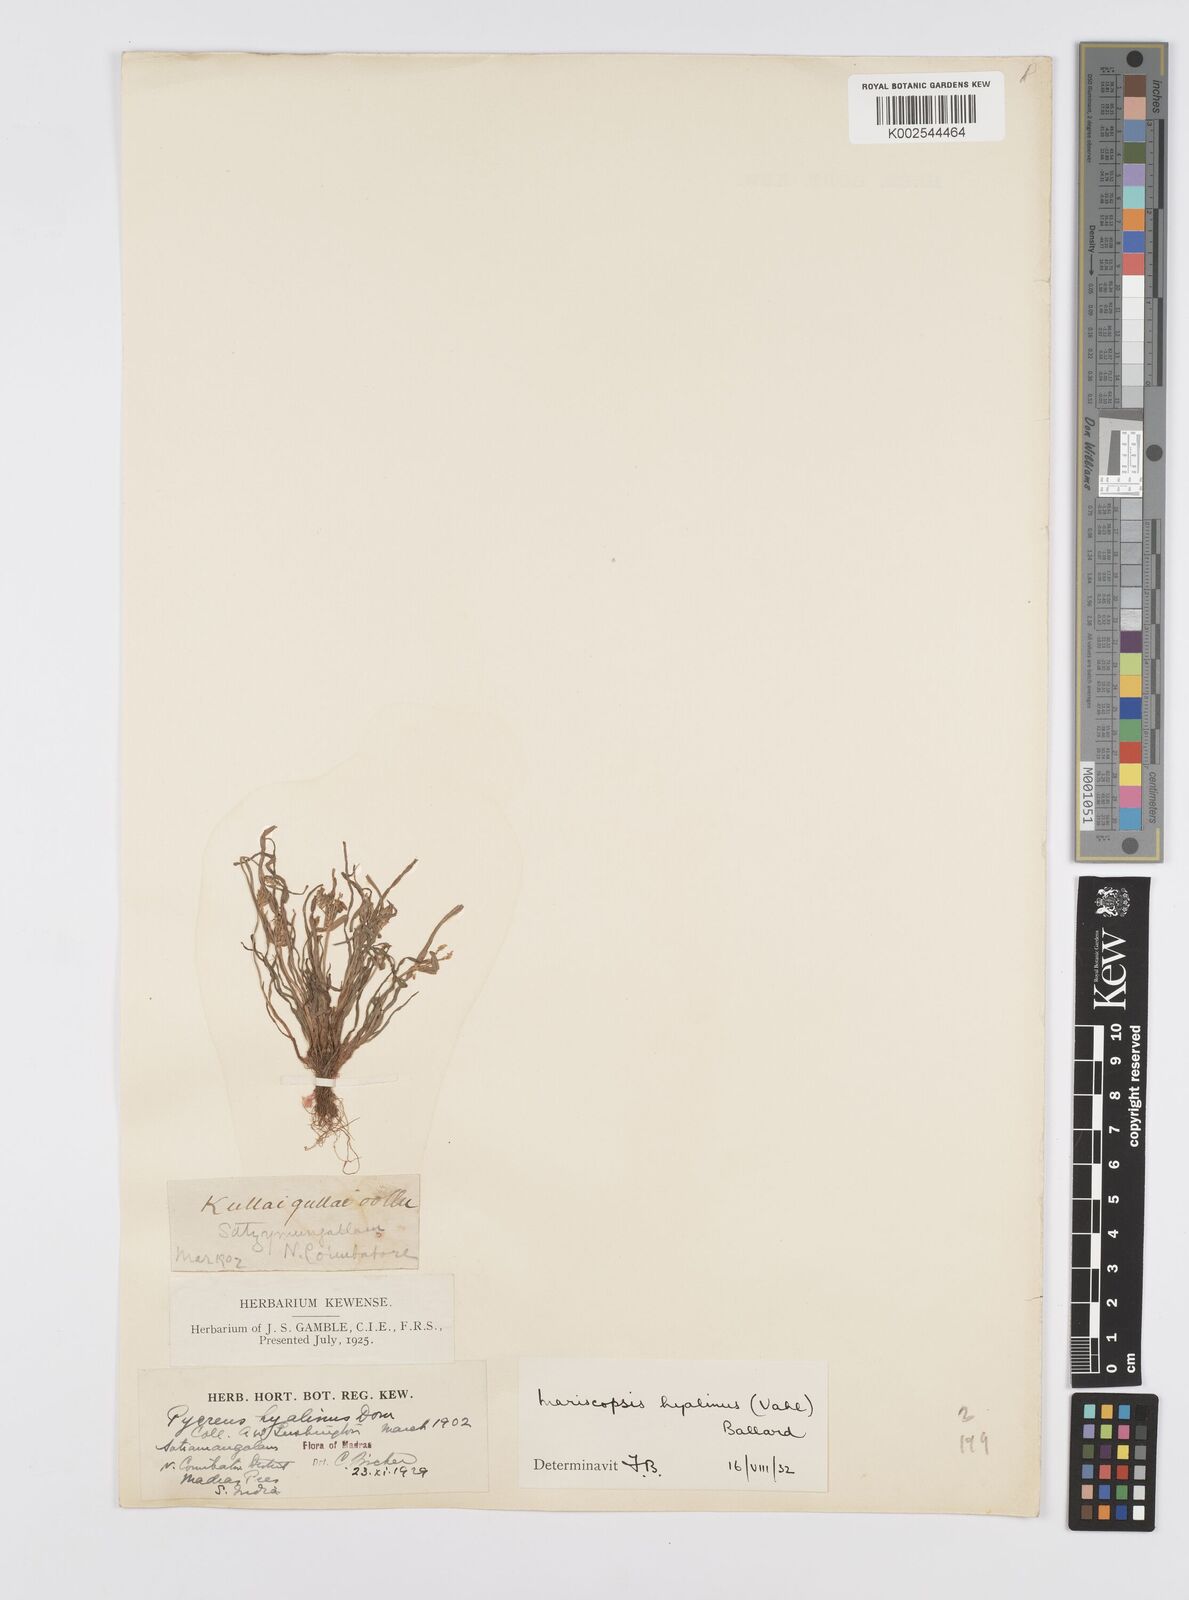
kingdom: Plantae
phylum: Tracheophyta
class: Liliopsida
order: Poales
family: Cyperaceae
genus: Cyperus
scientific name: Cyperus hyalinus
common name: Queensland sedge
